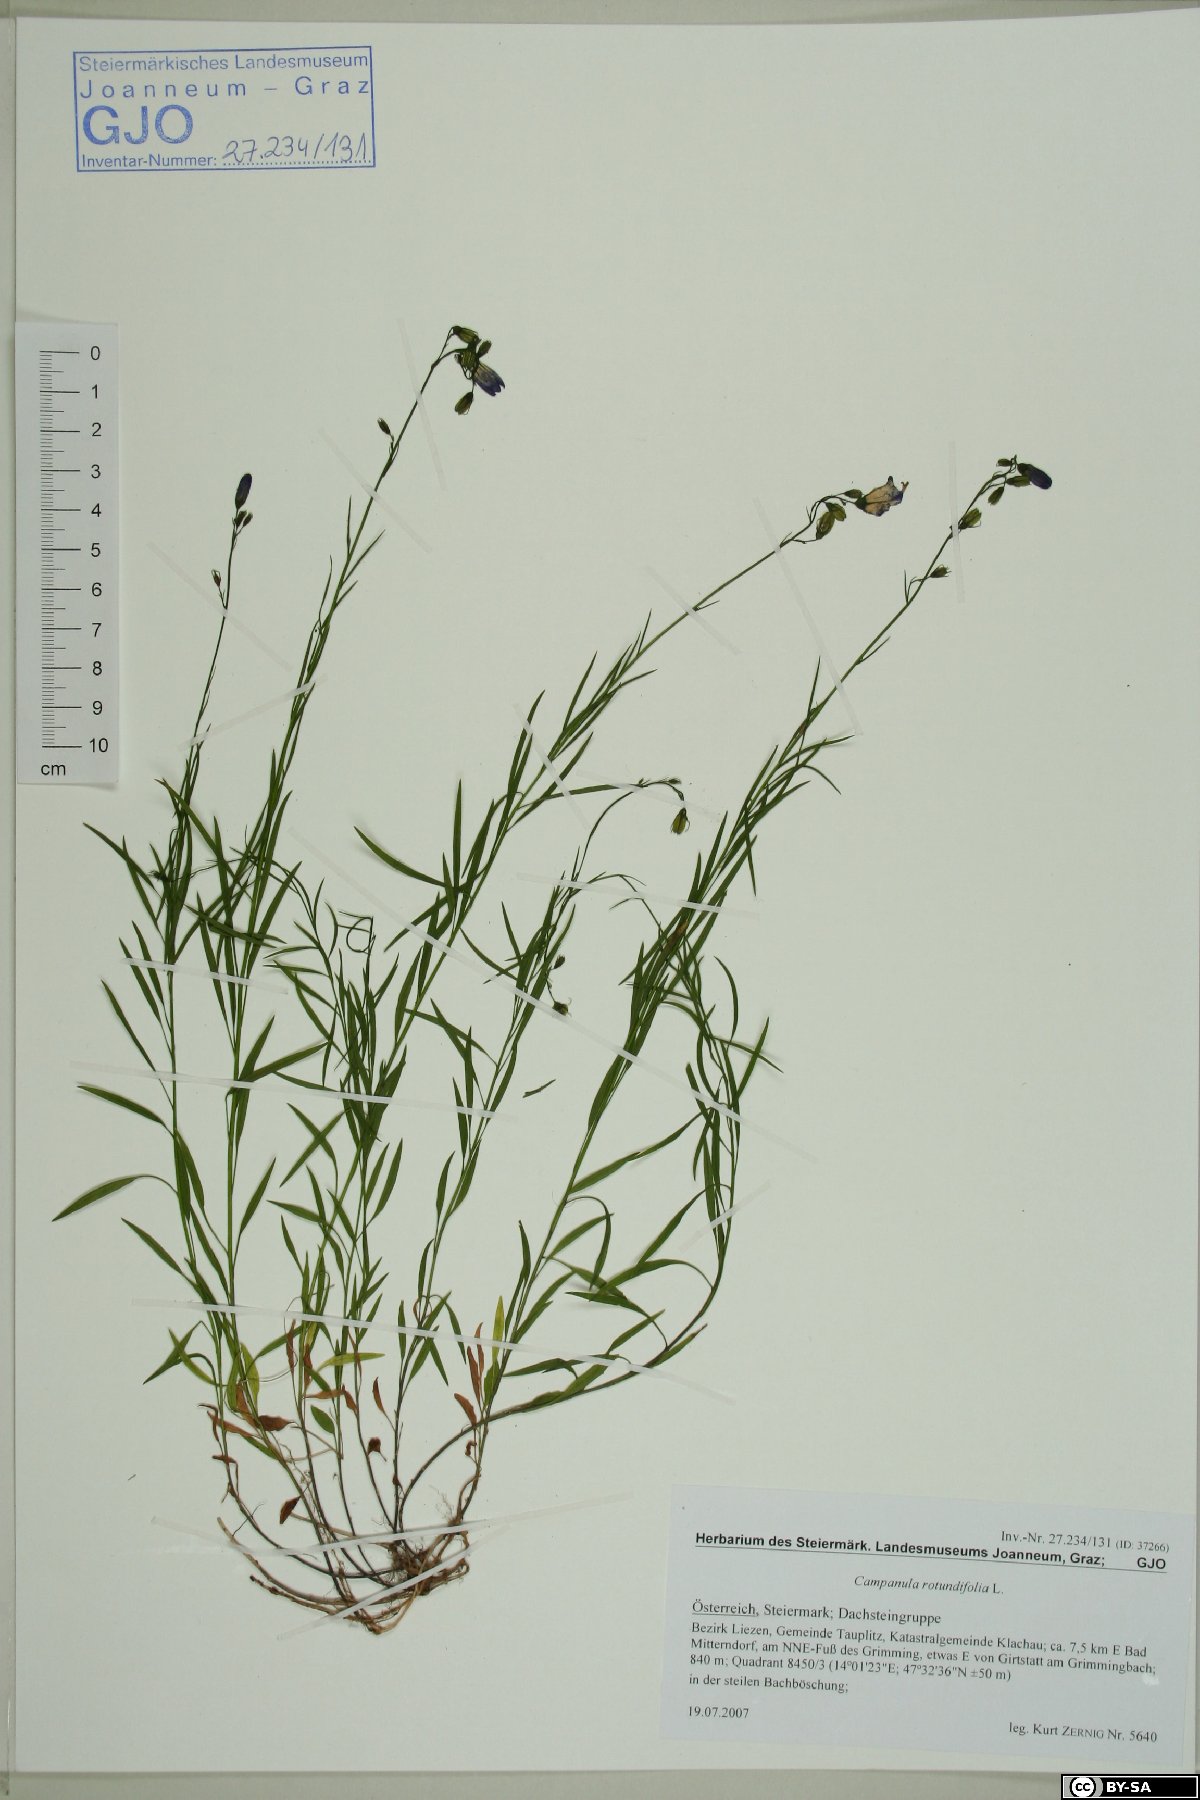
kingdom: Plantae
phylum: Tracheophyta
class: Magnoliopsida
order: Asterales
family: Campanulaceae
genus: Campanula
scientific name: Campanula rotundifolia
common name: Harebell
